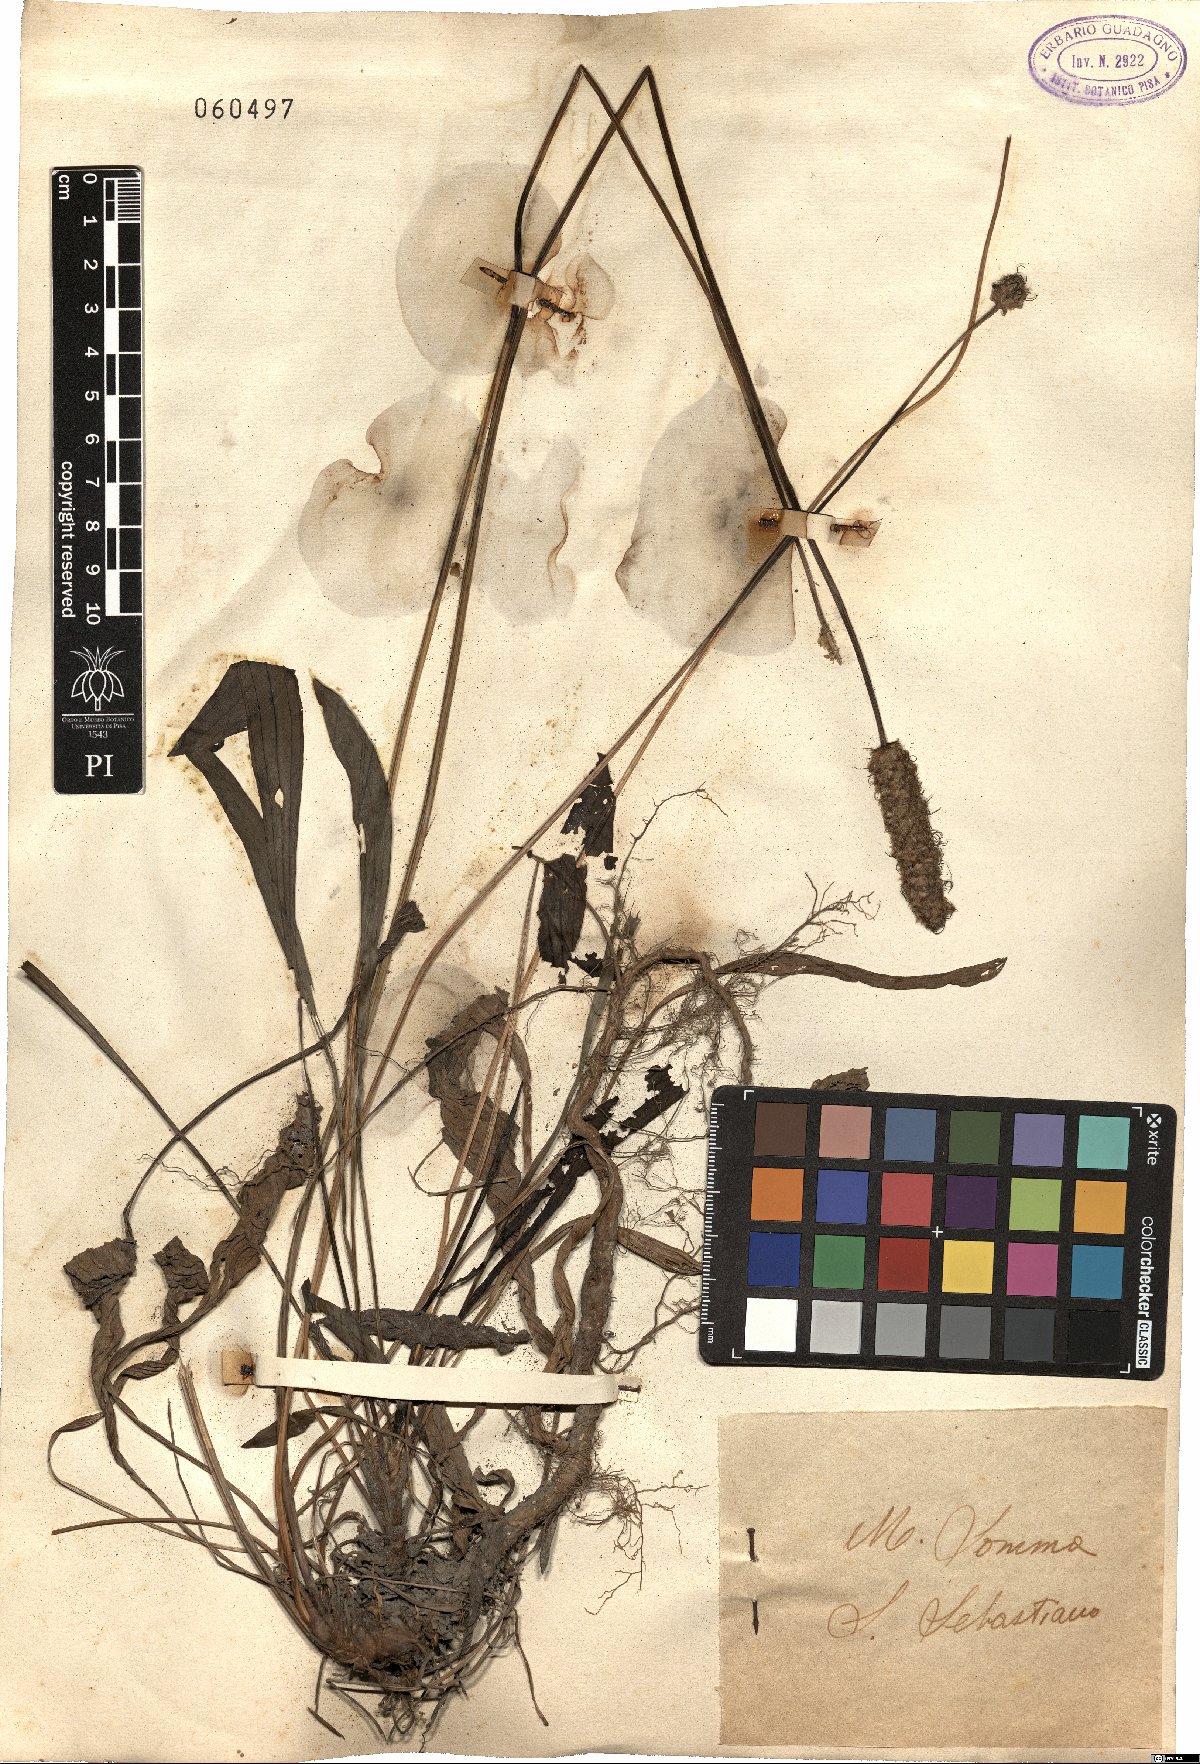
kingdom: Plantae
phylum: Tracheophyta
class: Magnoliopsida
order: Lamiales
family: Plantaginaceae
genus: Plantago
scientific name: Plantago lanceolata
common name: Ribwort plantain
